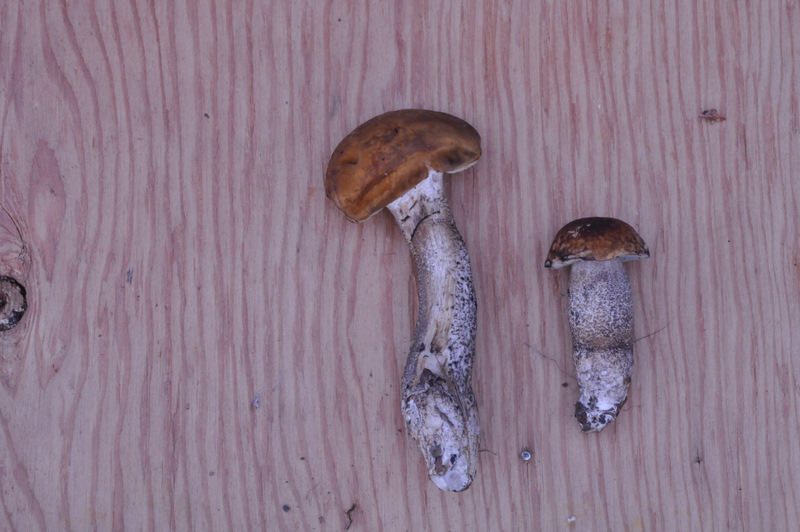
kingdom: Fungi
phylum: Basidiomycota
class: Agaricomycetes
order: Boletales
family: Boletaceae
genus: Leccinellum
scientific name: Leccinellum pseudoscabrum
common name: avnbøg-skælrørhat
